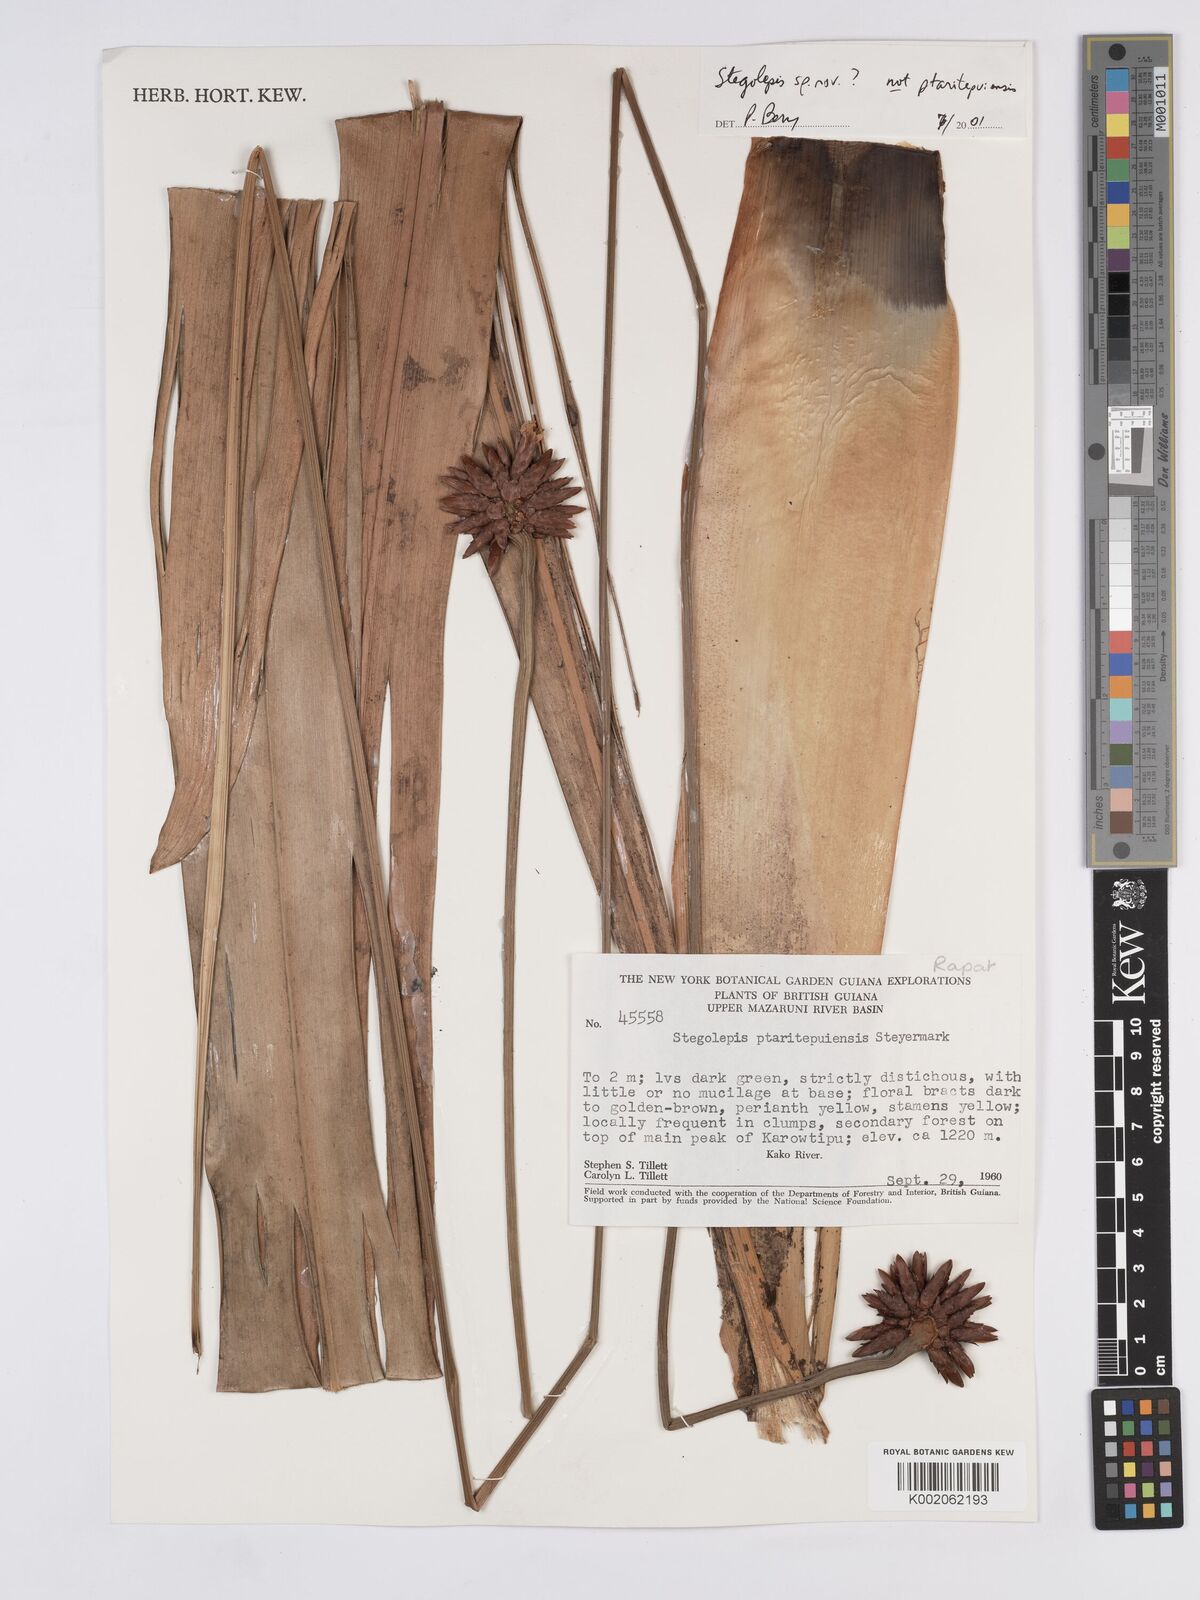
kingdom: Plantae
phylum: Tracheophyta
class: Liliopsida
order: Poales
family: Rapateaceae
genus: Stegolepis
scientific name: Stegolepis
